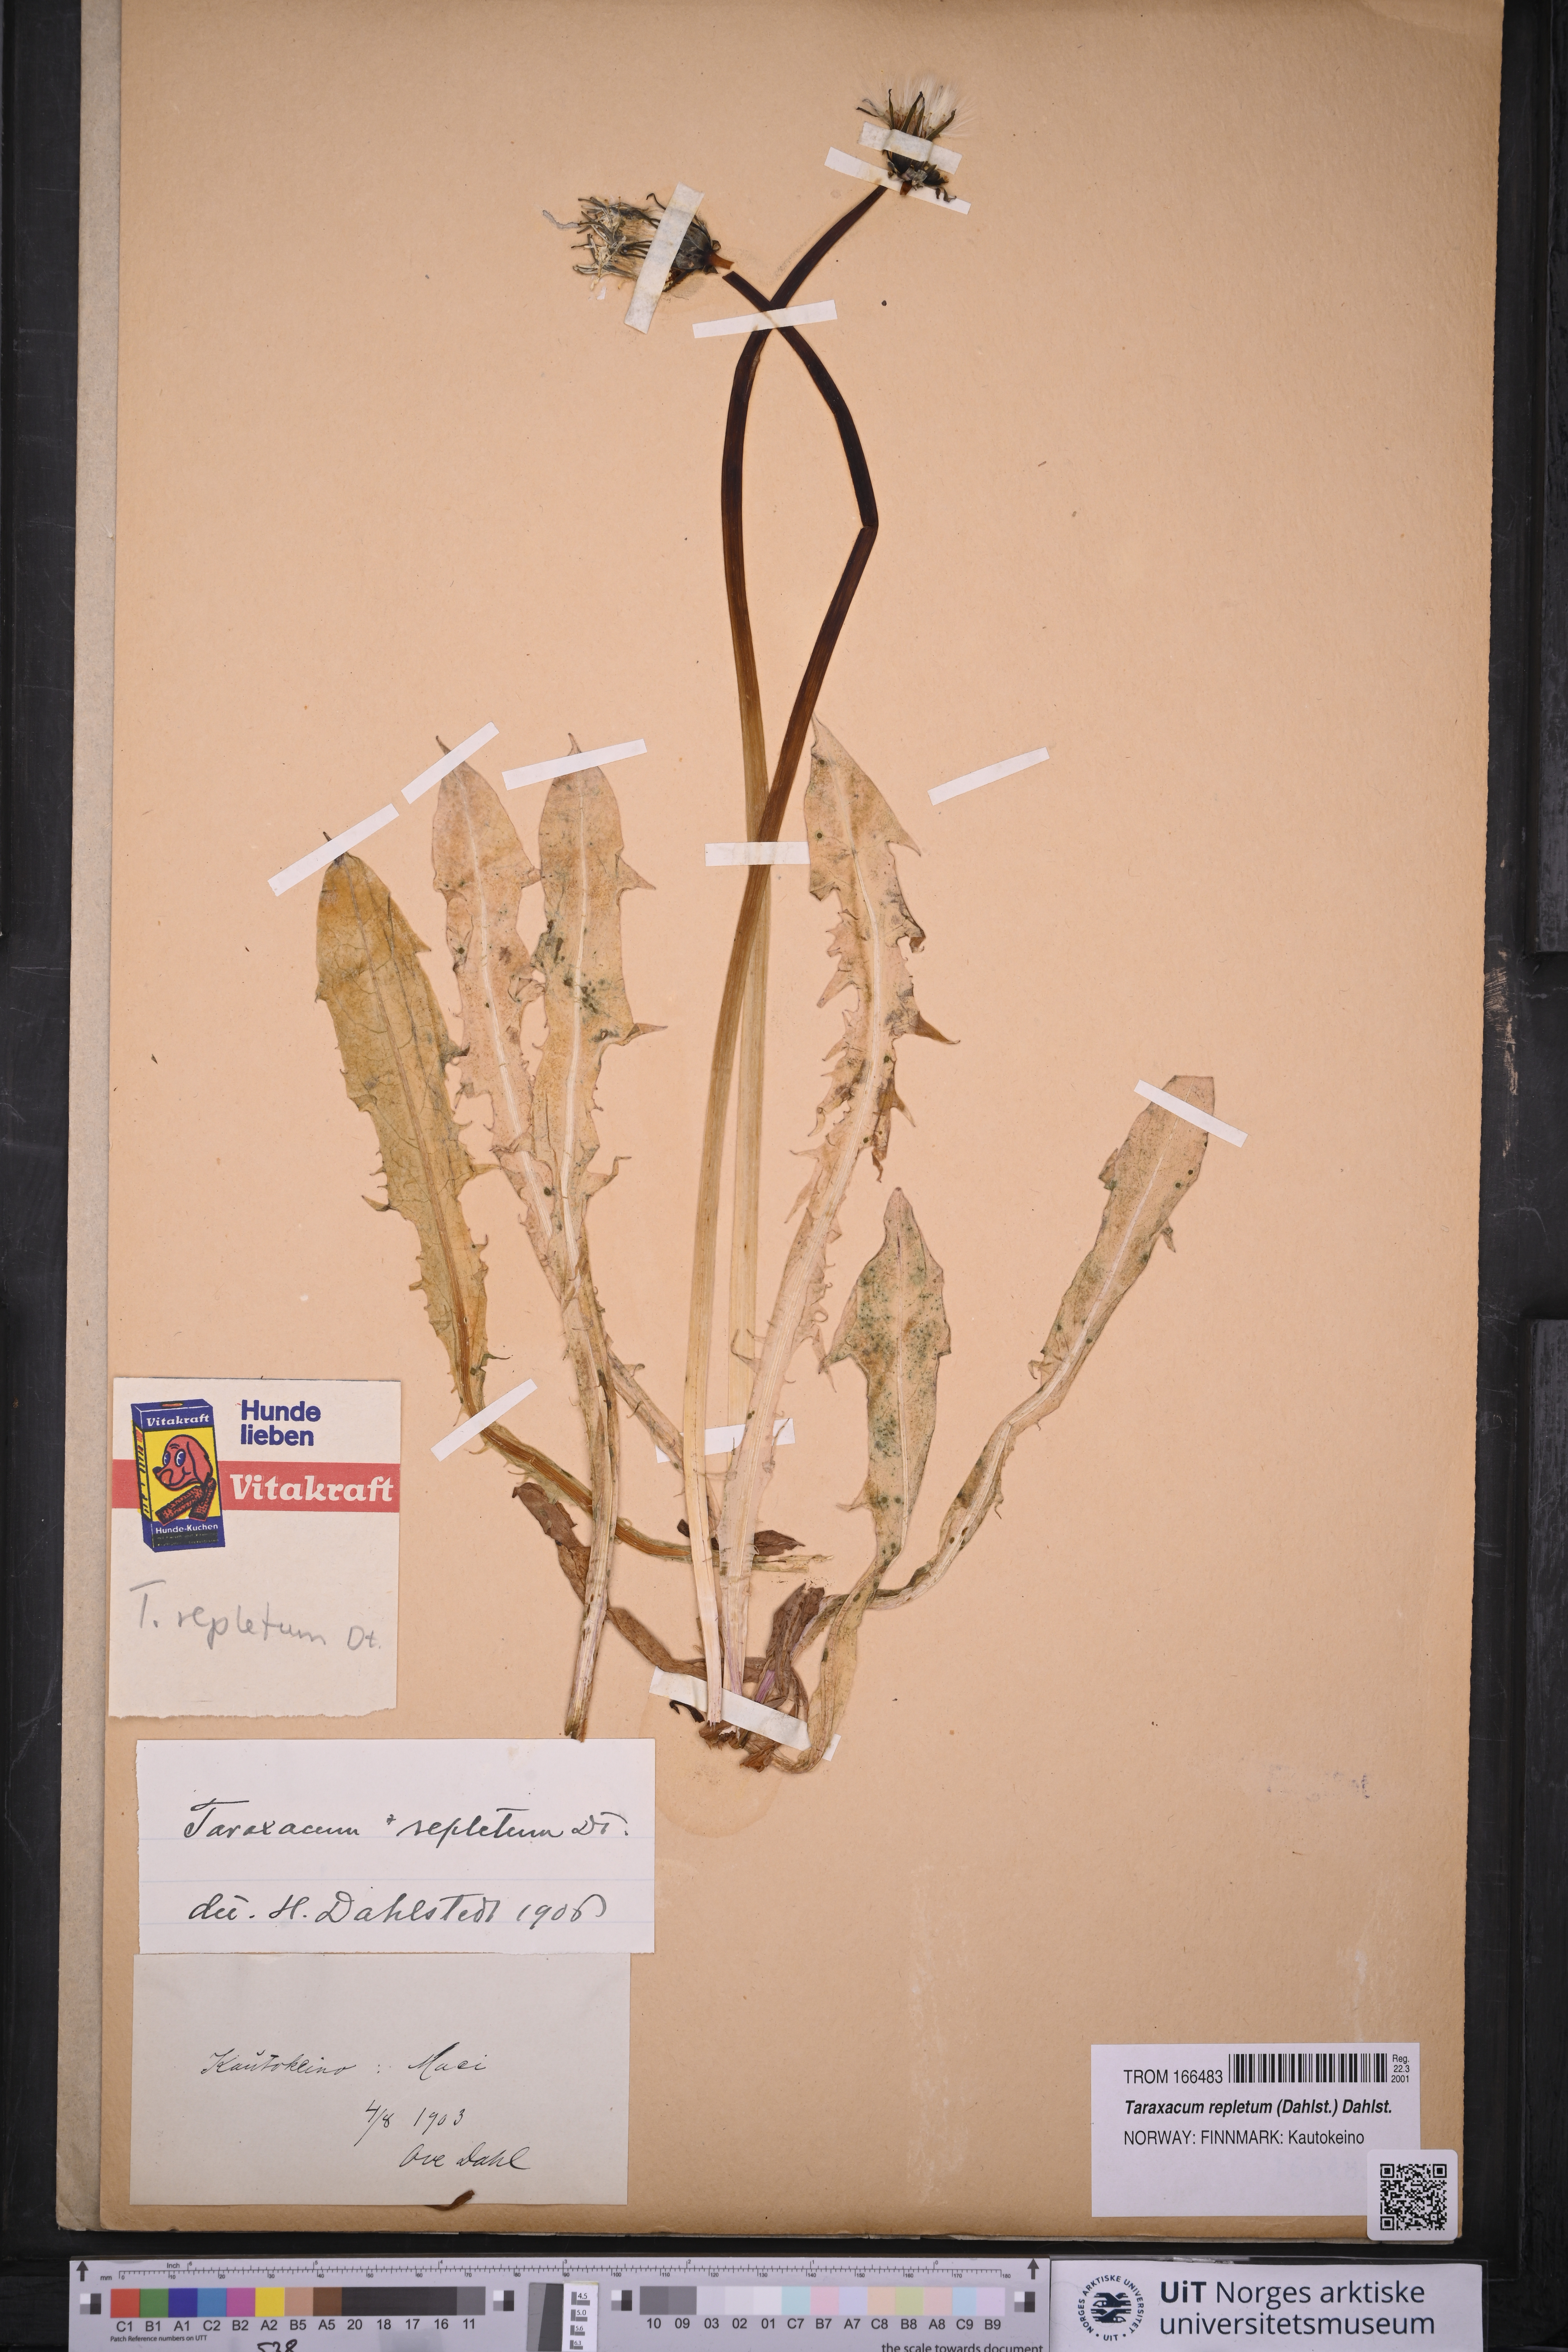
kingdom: Plantae
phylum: Tracheophyta
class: Magnoliopsida
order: Asterales
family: Asteraceae
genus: Taraxacum
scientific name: Taraxacum repletum
